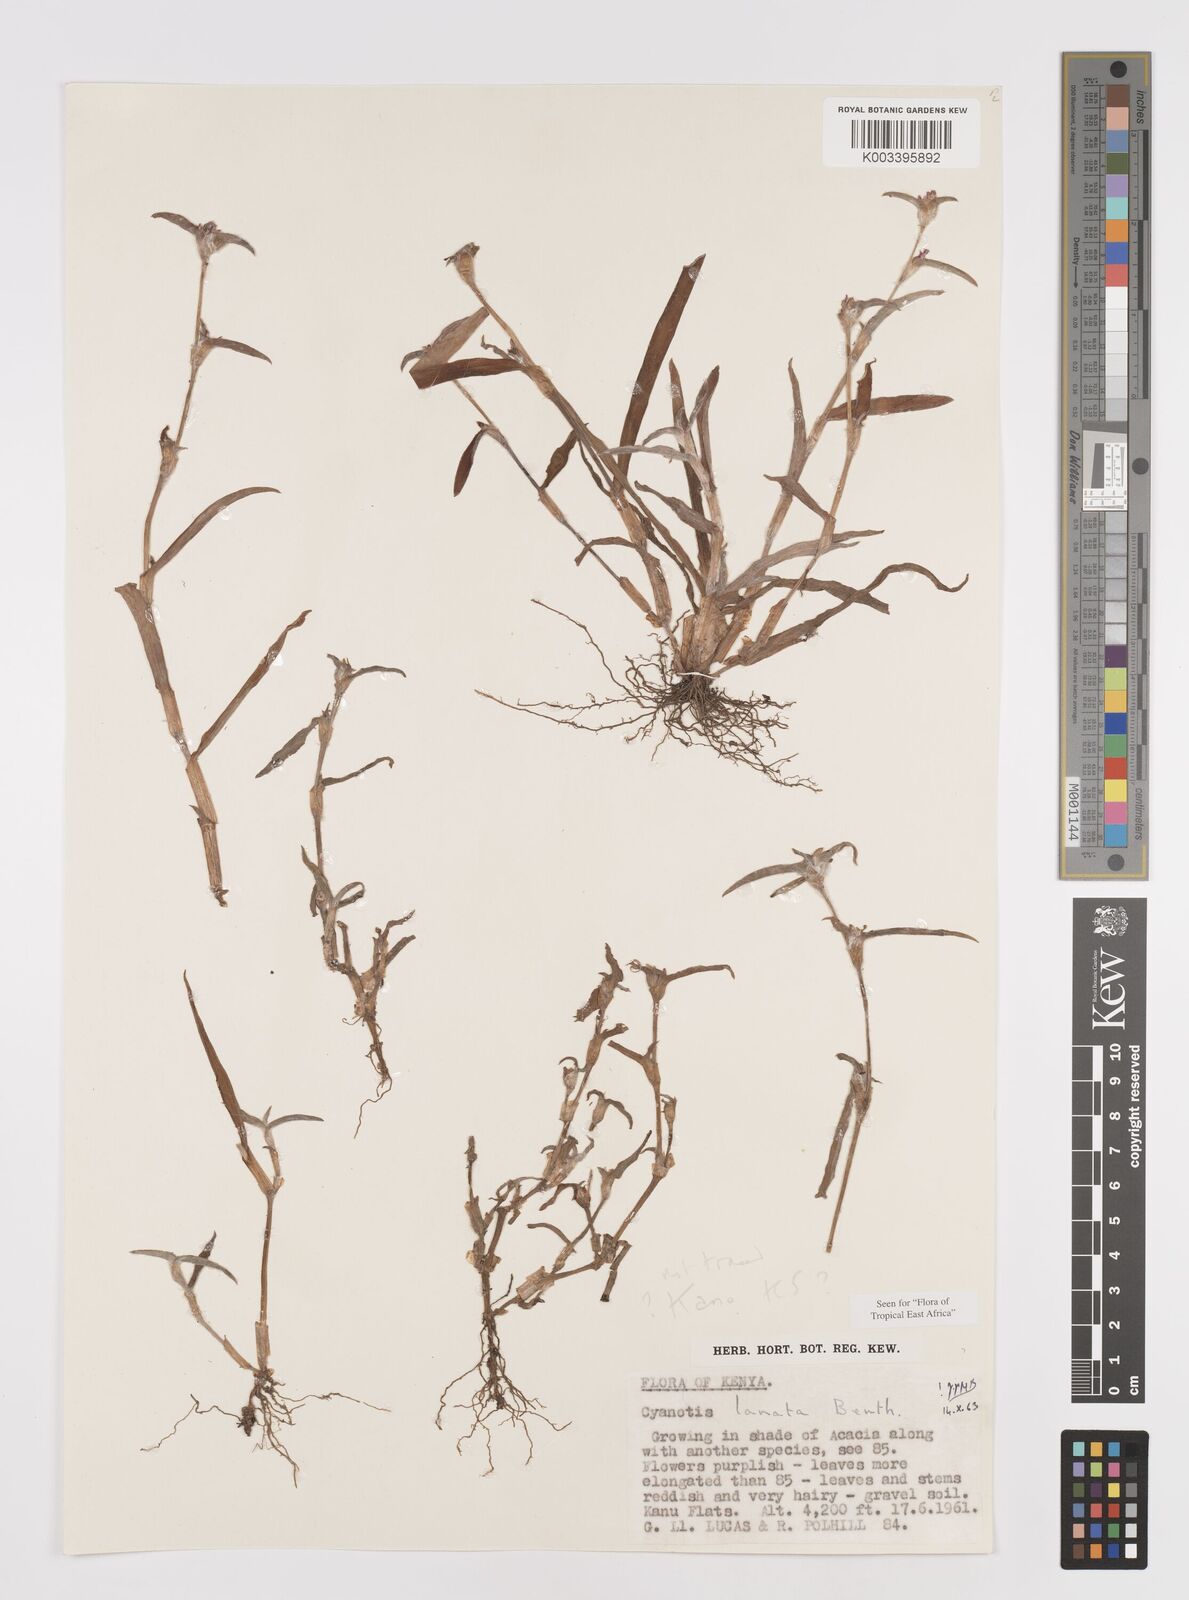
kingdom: Plantae
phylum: Tracheophyta
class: Liliopsida
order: Commelinales
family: Commelinaceae
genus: Cyanotis
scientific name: Cyanotis lanata
